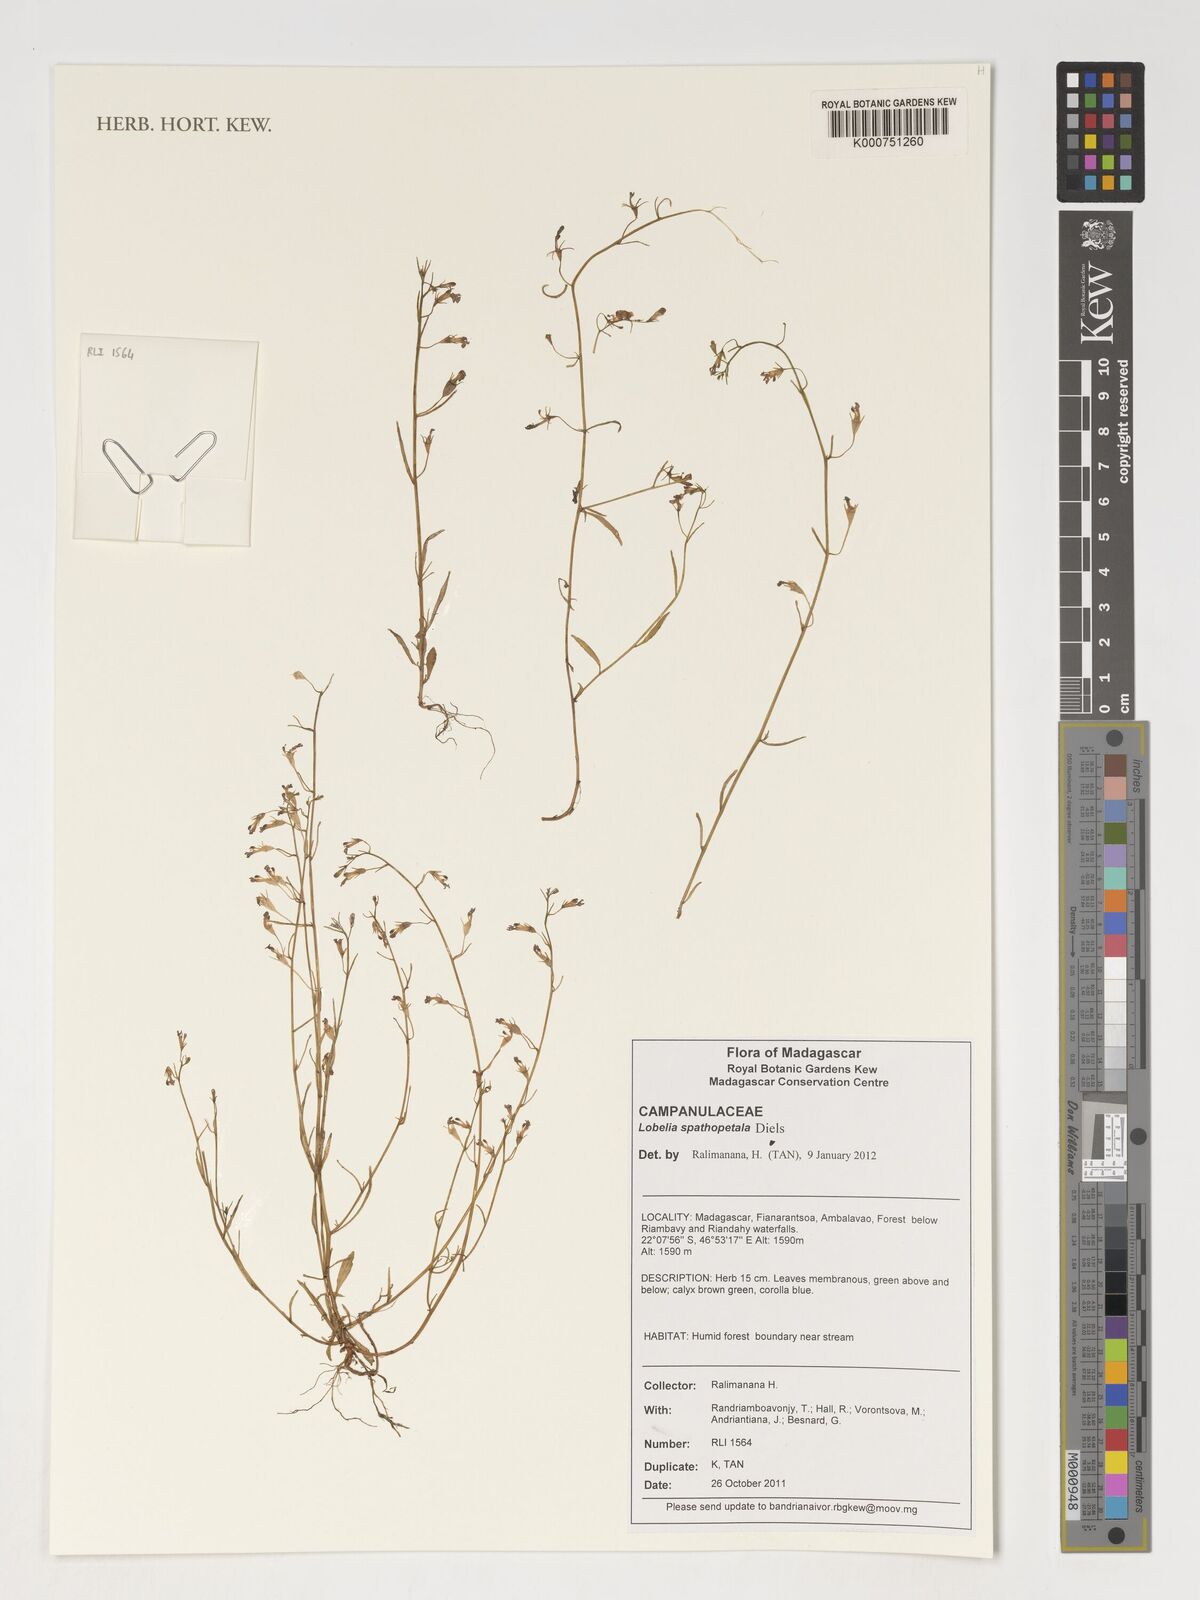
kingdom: Plantae
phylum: Tracheophyta
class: Magnoliopsida
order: Asterales
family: Campanulaceae
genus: Lobelia
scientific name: Lobelia spathopetala
